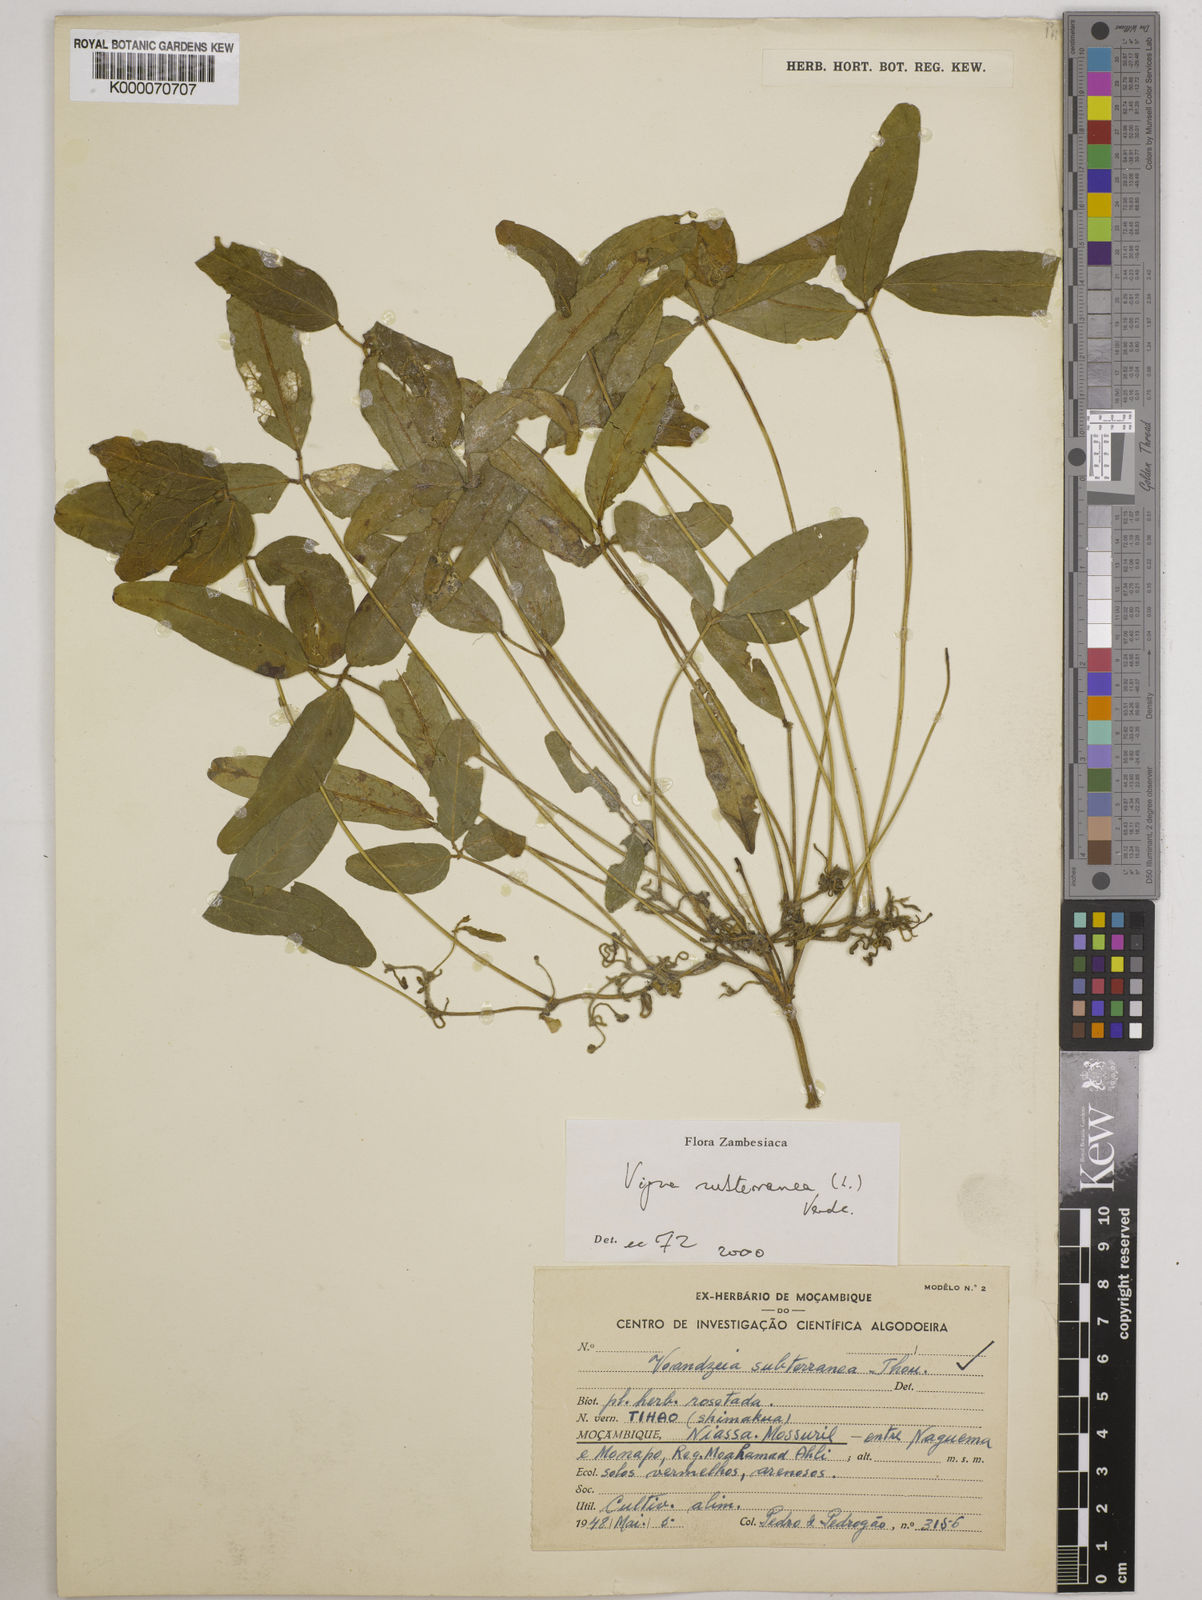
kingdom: Plantae
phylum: Tracheophyta
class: Magnoliopsida
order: Fabales
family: Fabaceae
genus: Vigna
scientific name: Vigna subterranea
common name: Bambara groundnut
